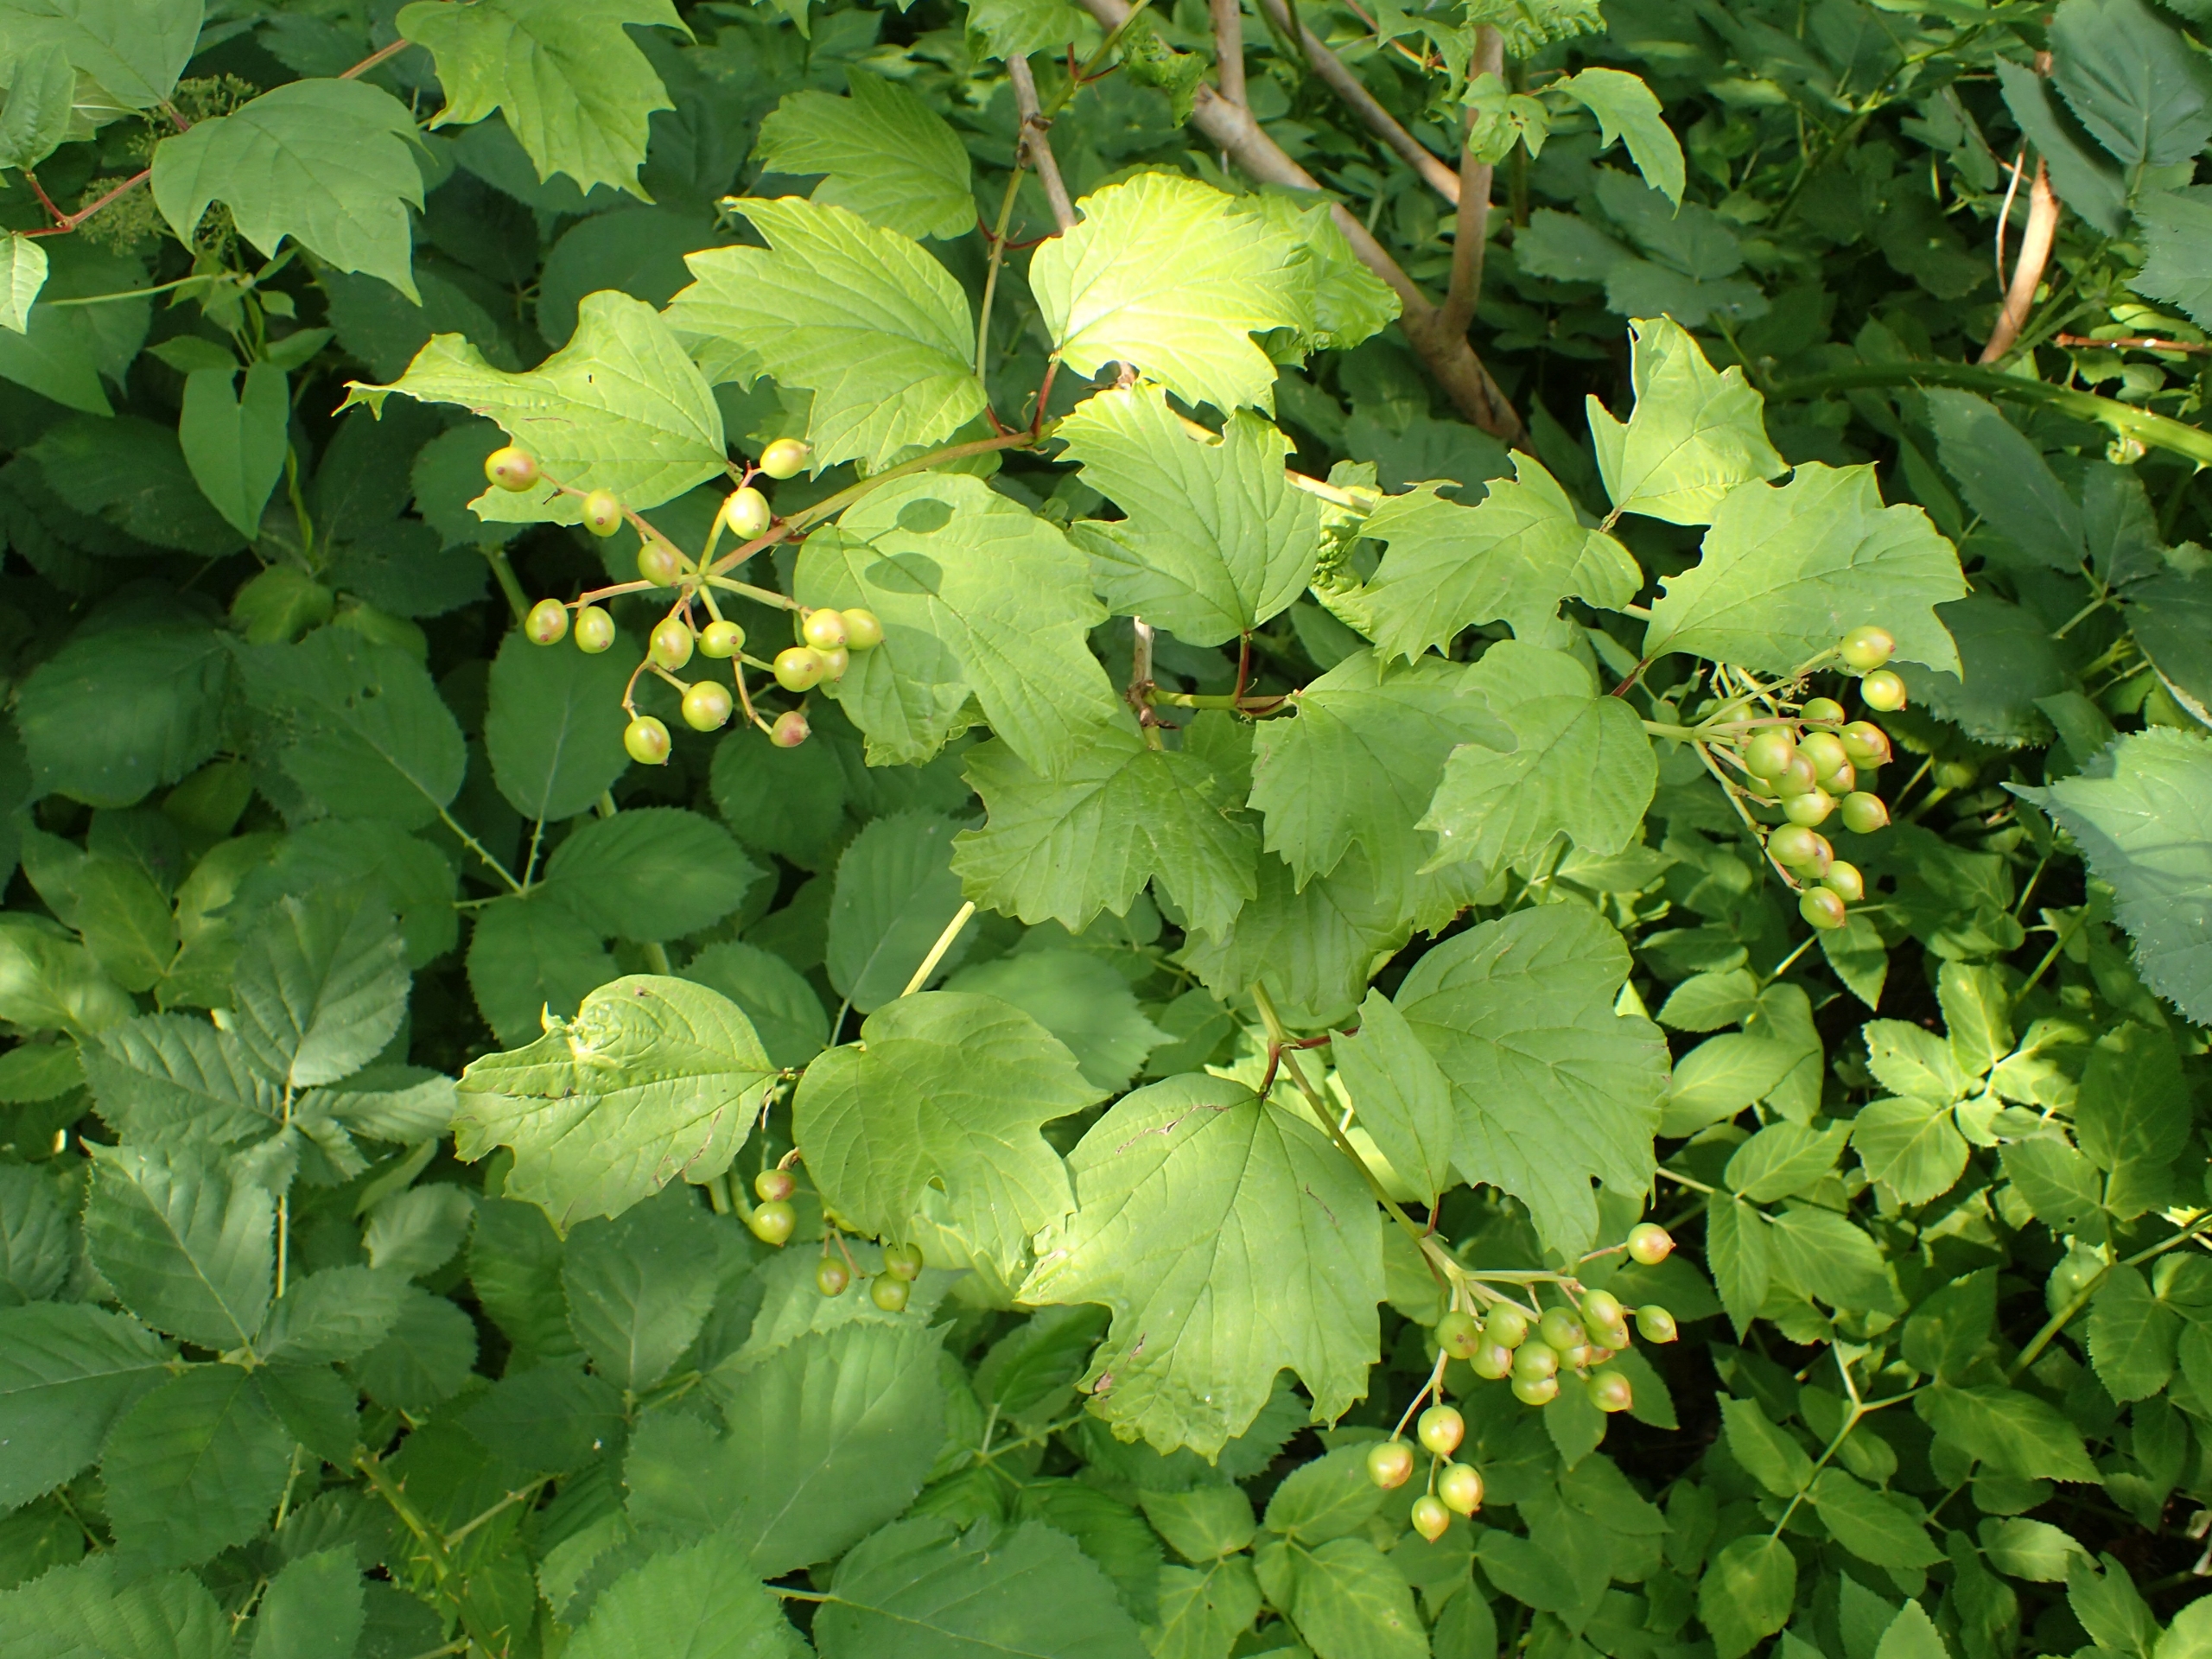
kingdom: Plantae
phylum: Tracheophyta
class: Magnoliopsida
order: Dipsacales
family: Viburnaceae
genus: Viburnum
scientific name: Viburnum opulus
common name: Kvalkved
